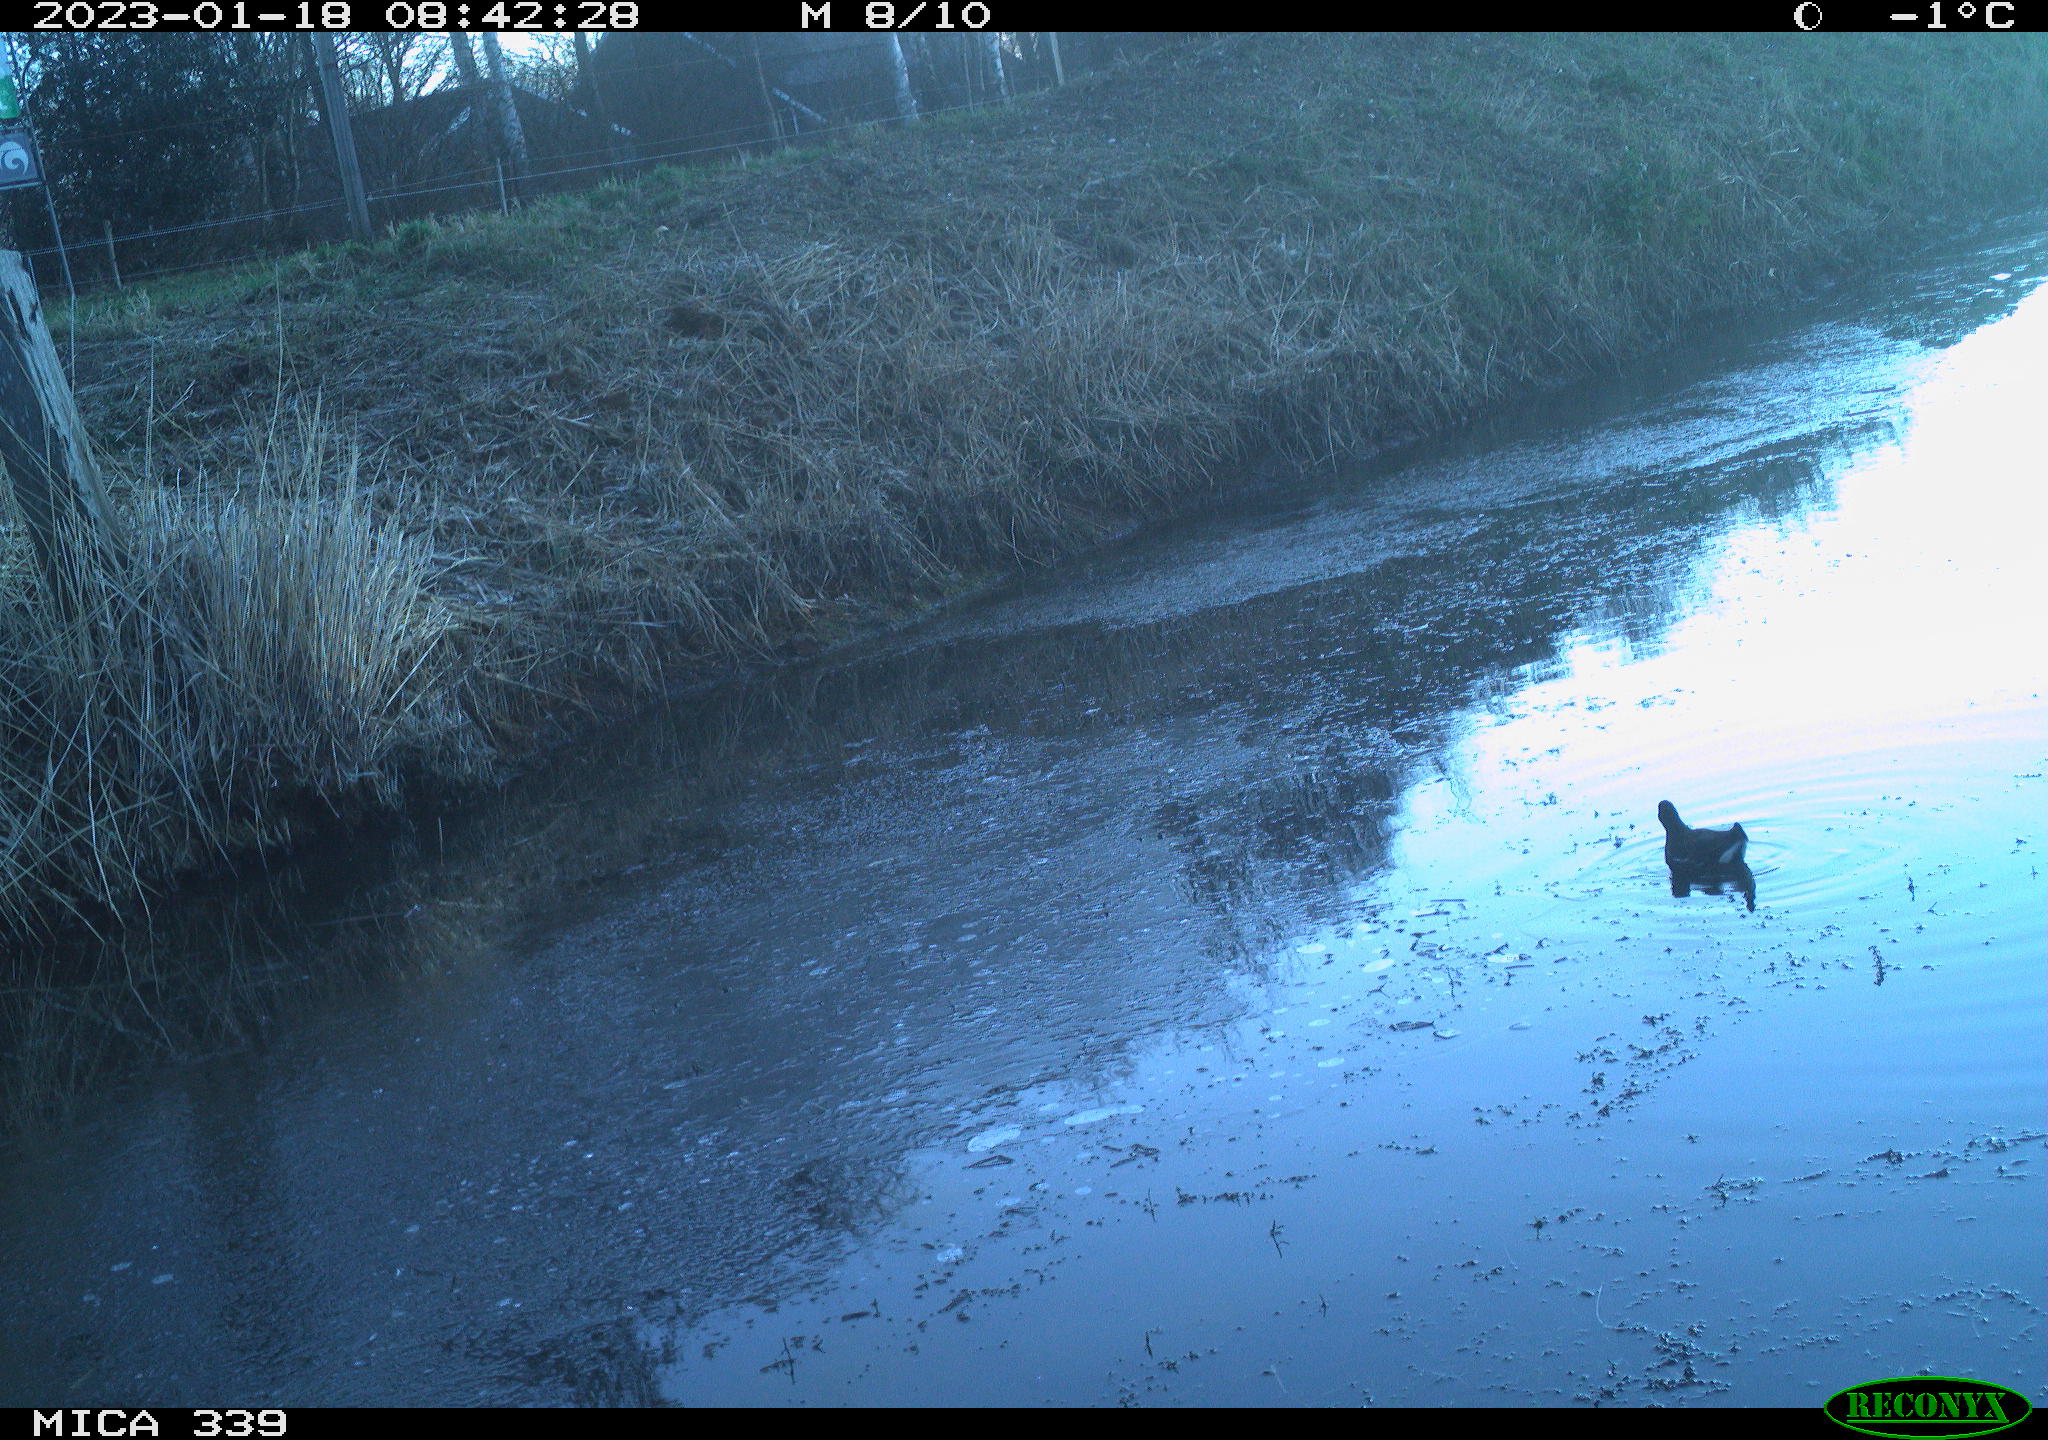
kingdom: Animalia
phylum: Chordata
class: Aves
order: Gruiformes
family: Rallidae
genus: Gallinula
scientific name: Gallinula chloropus
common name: Common moorhen
